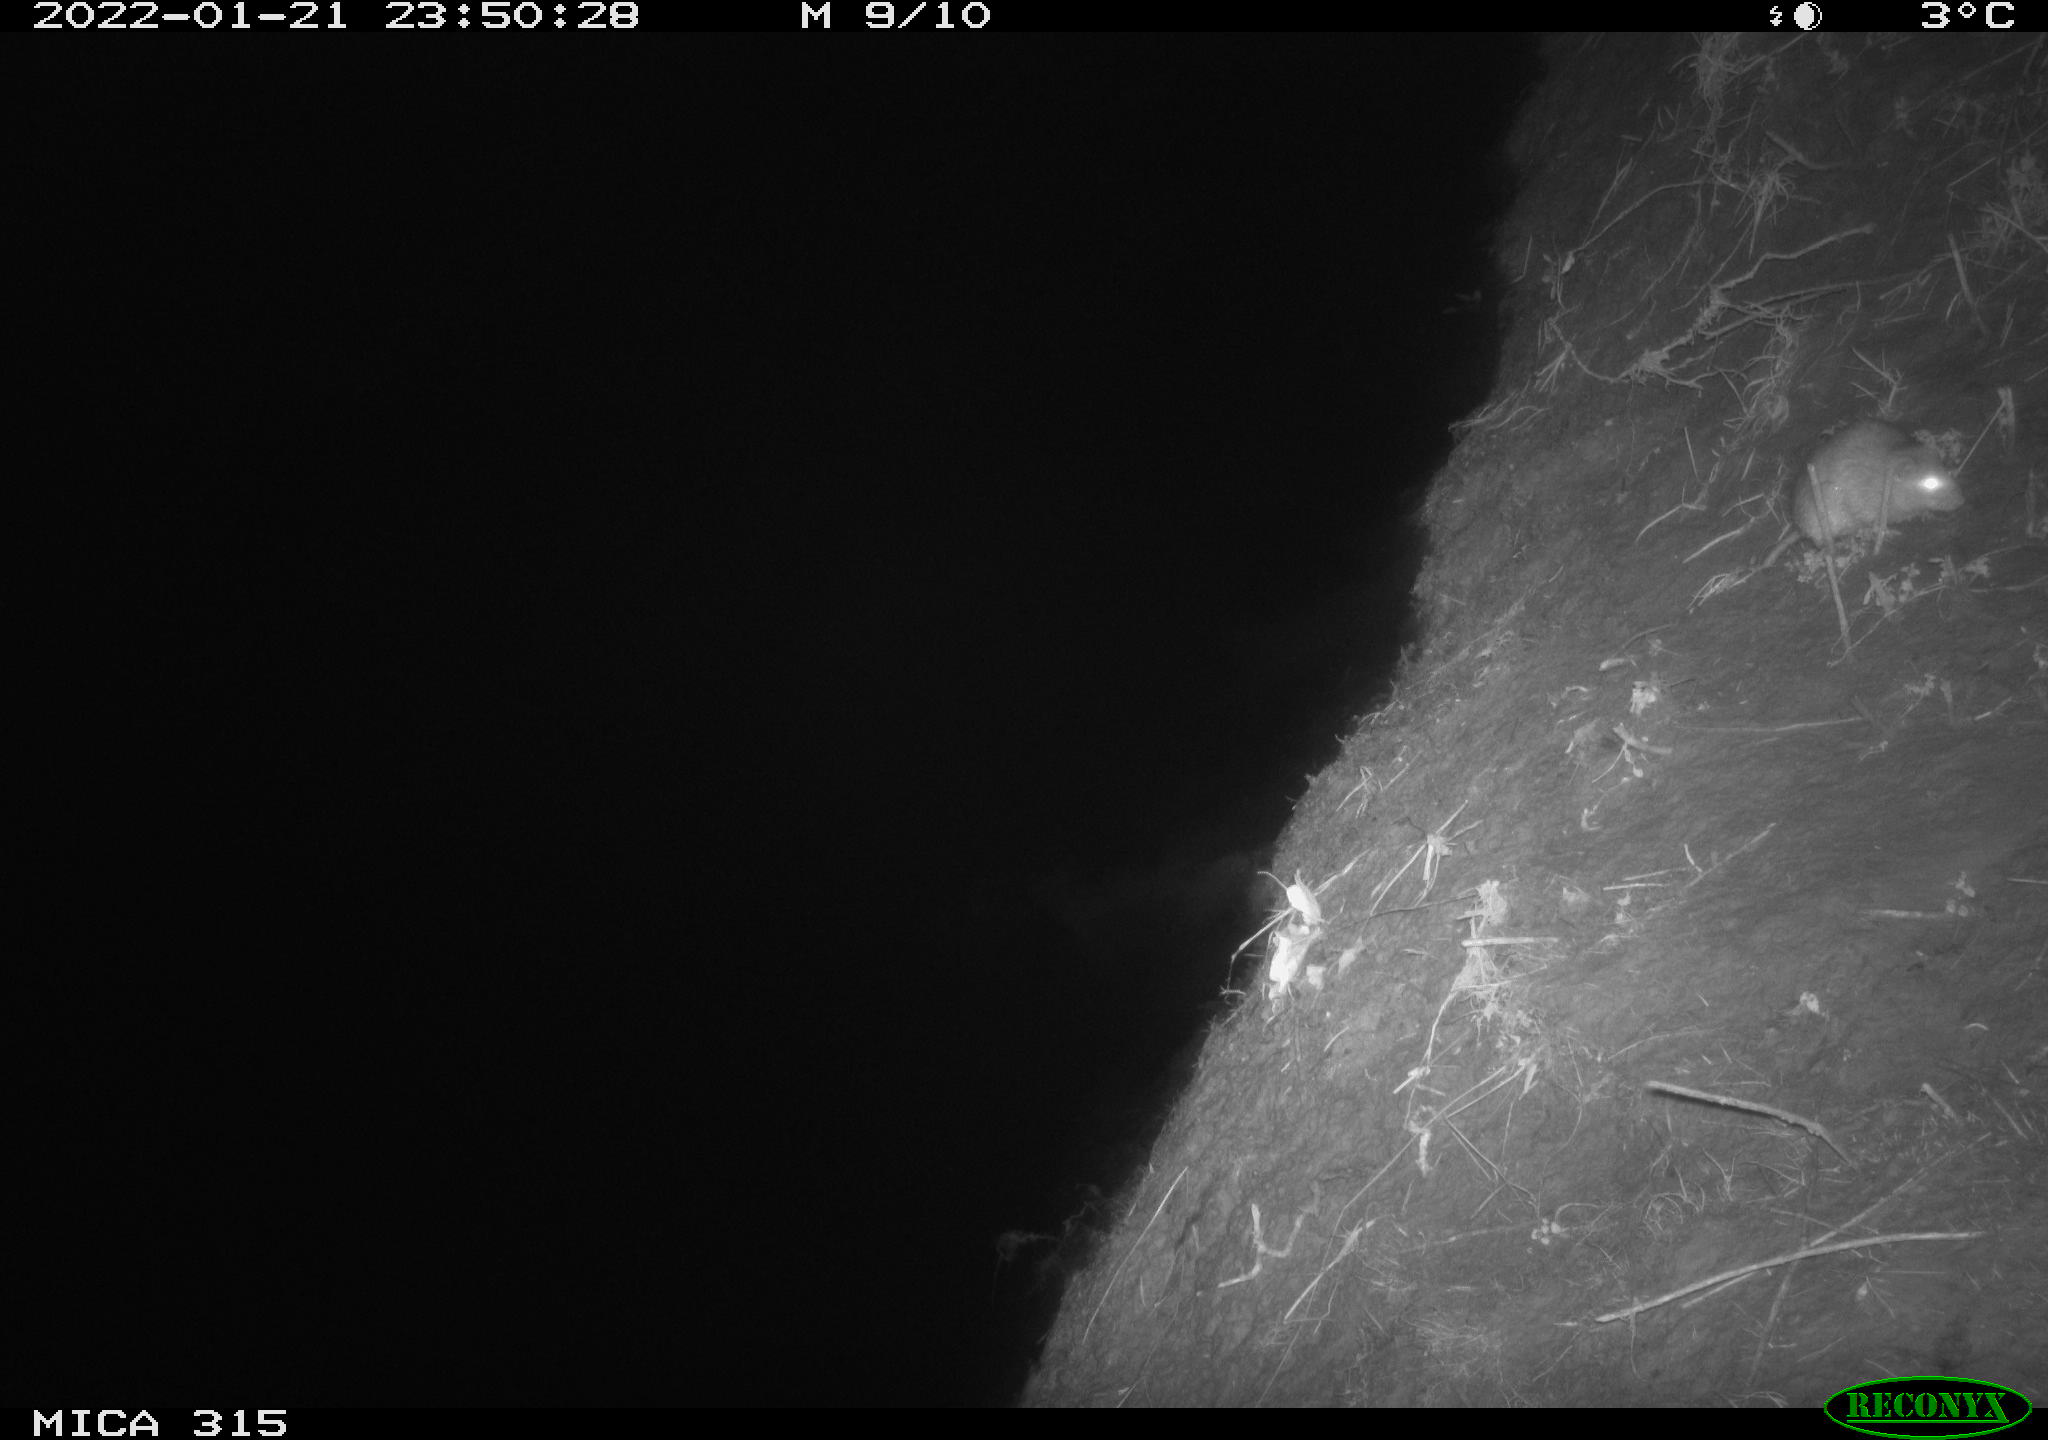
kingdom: Animalia
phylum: Chordata
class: Mammalia
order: Rodentia
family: Muridae
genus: Rattus
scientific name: Rattus norvegicus
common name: Brown rat
